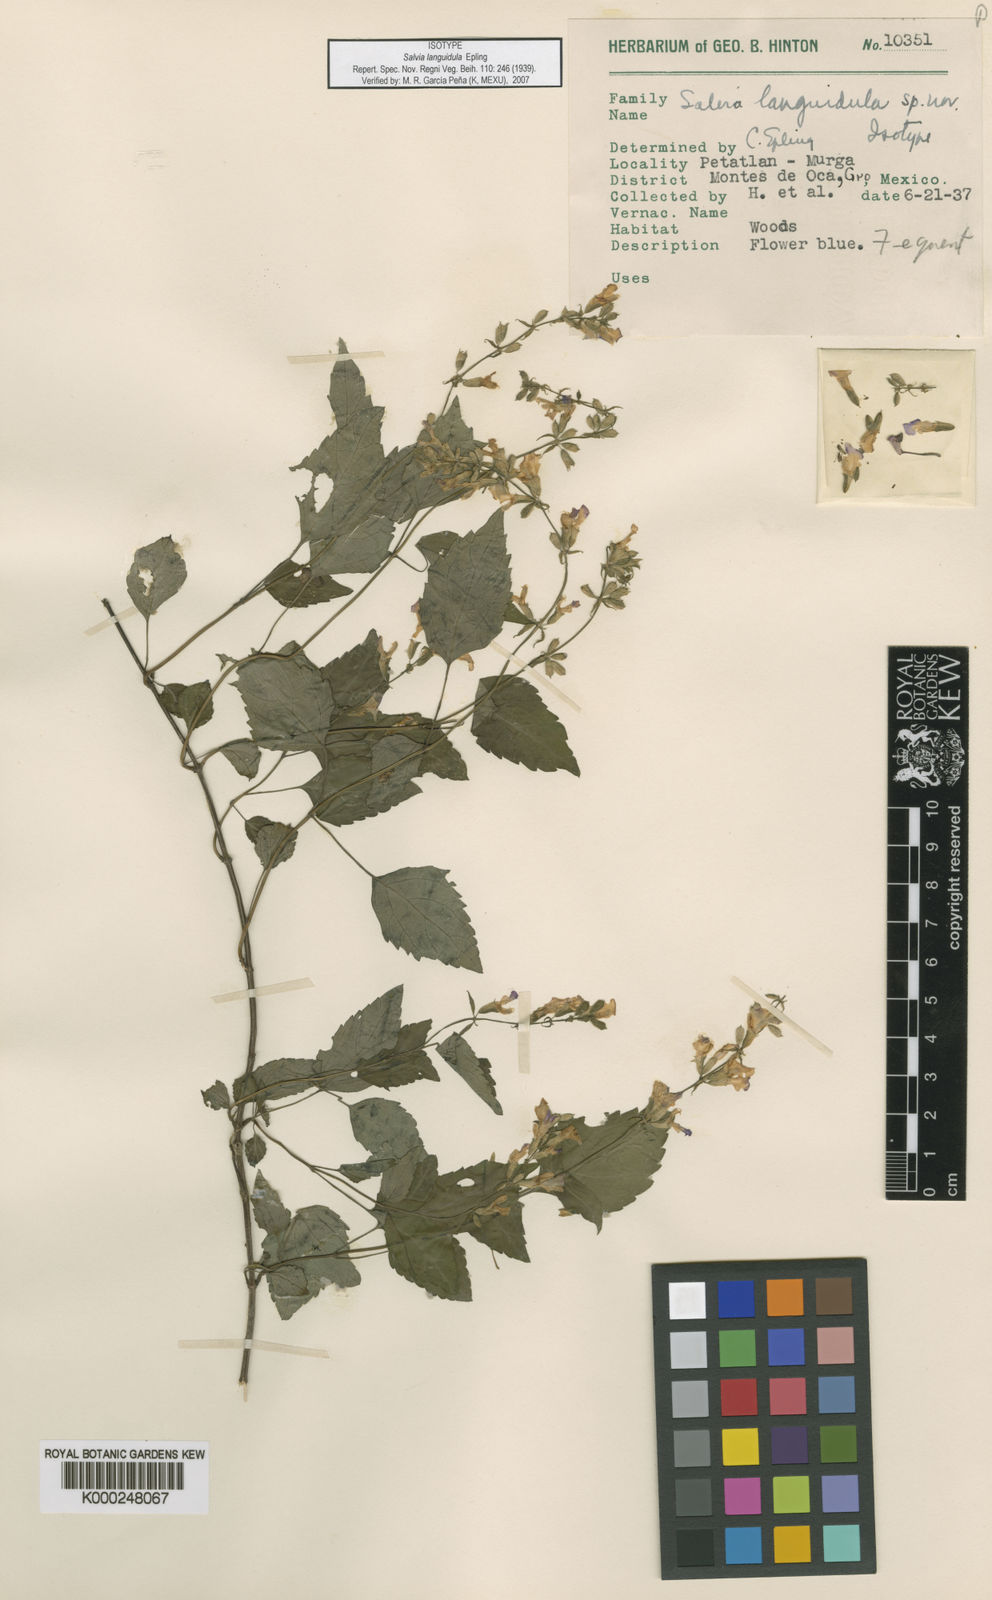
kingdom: Plantae
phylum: Tracheophyta
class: Magnoliopsida
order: Lamiales
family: Lamiaceae
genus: Salvia
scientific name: Salvia languidula
